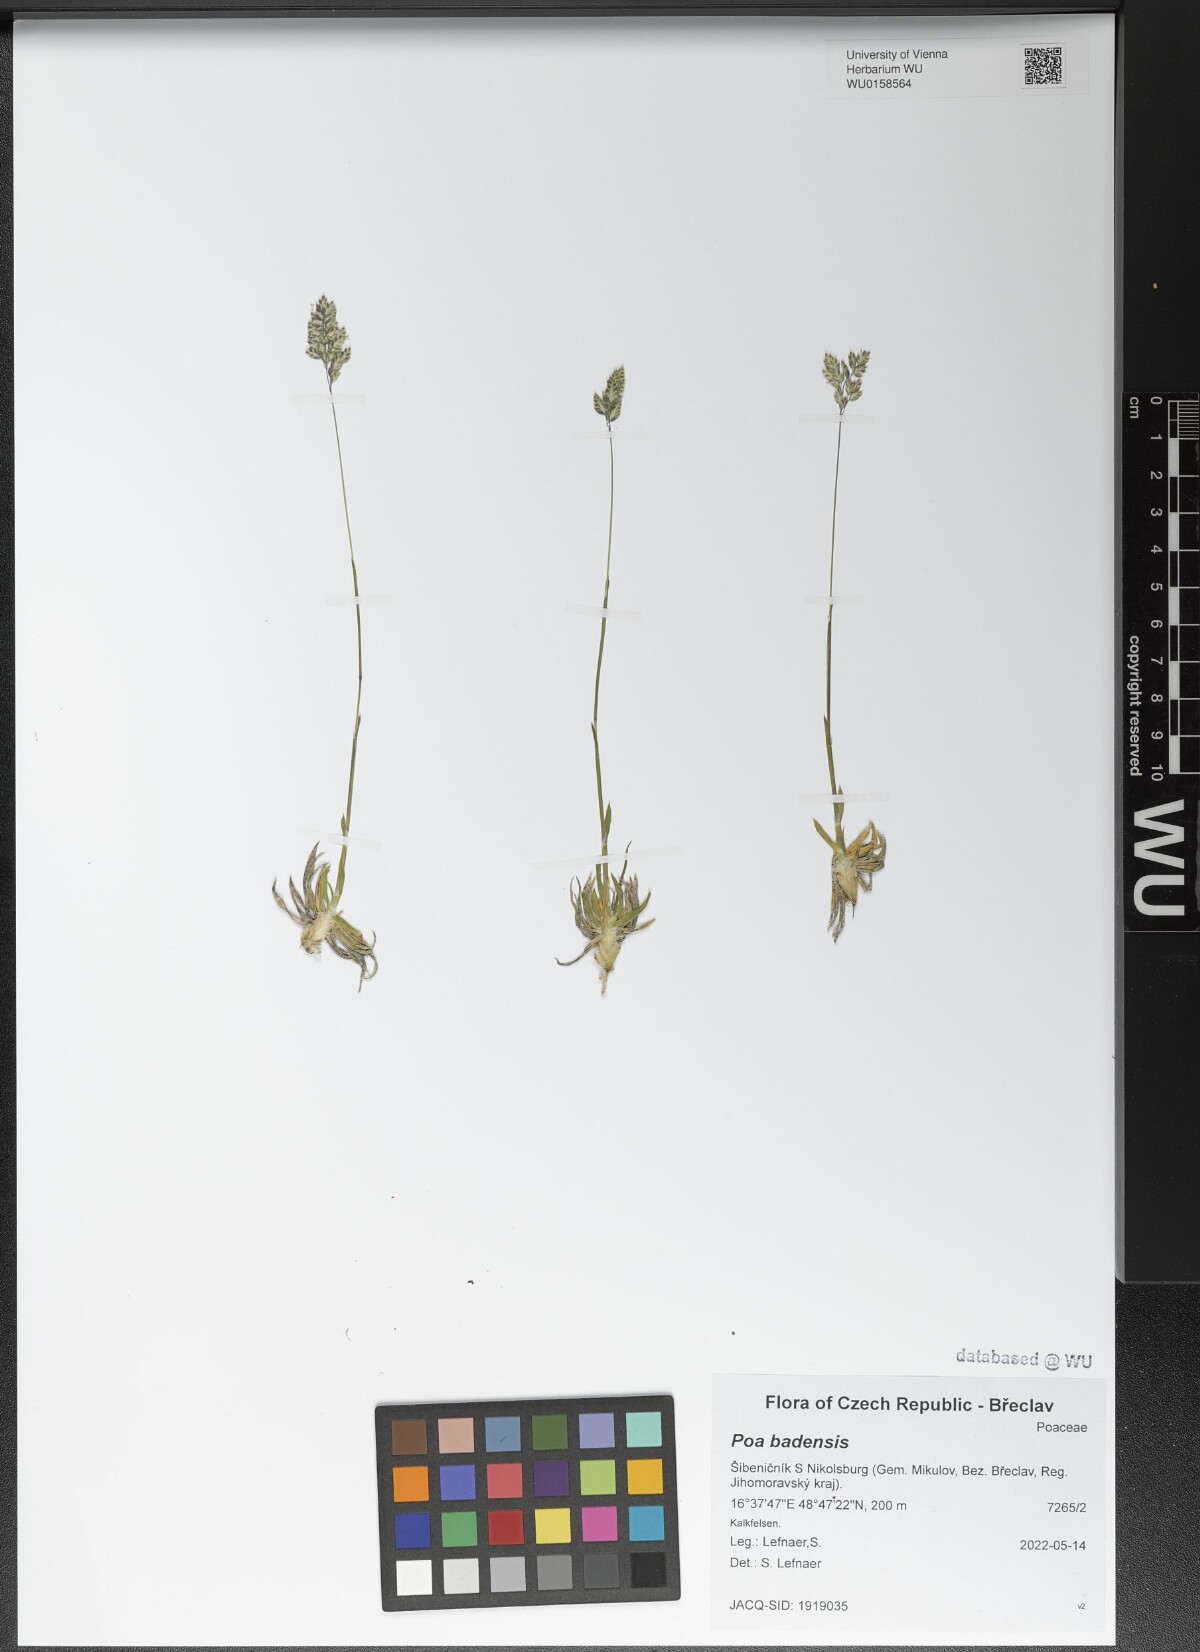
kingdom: Plantae
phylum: Tracheophyta
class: Liliopsida
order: Poales
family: Poaceae
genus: Poa
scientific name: Poa badensis
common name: Baden's bluegrass
